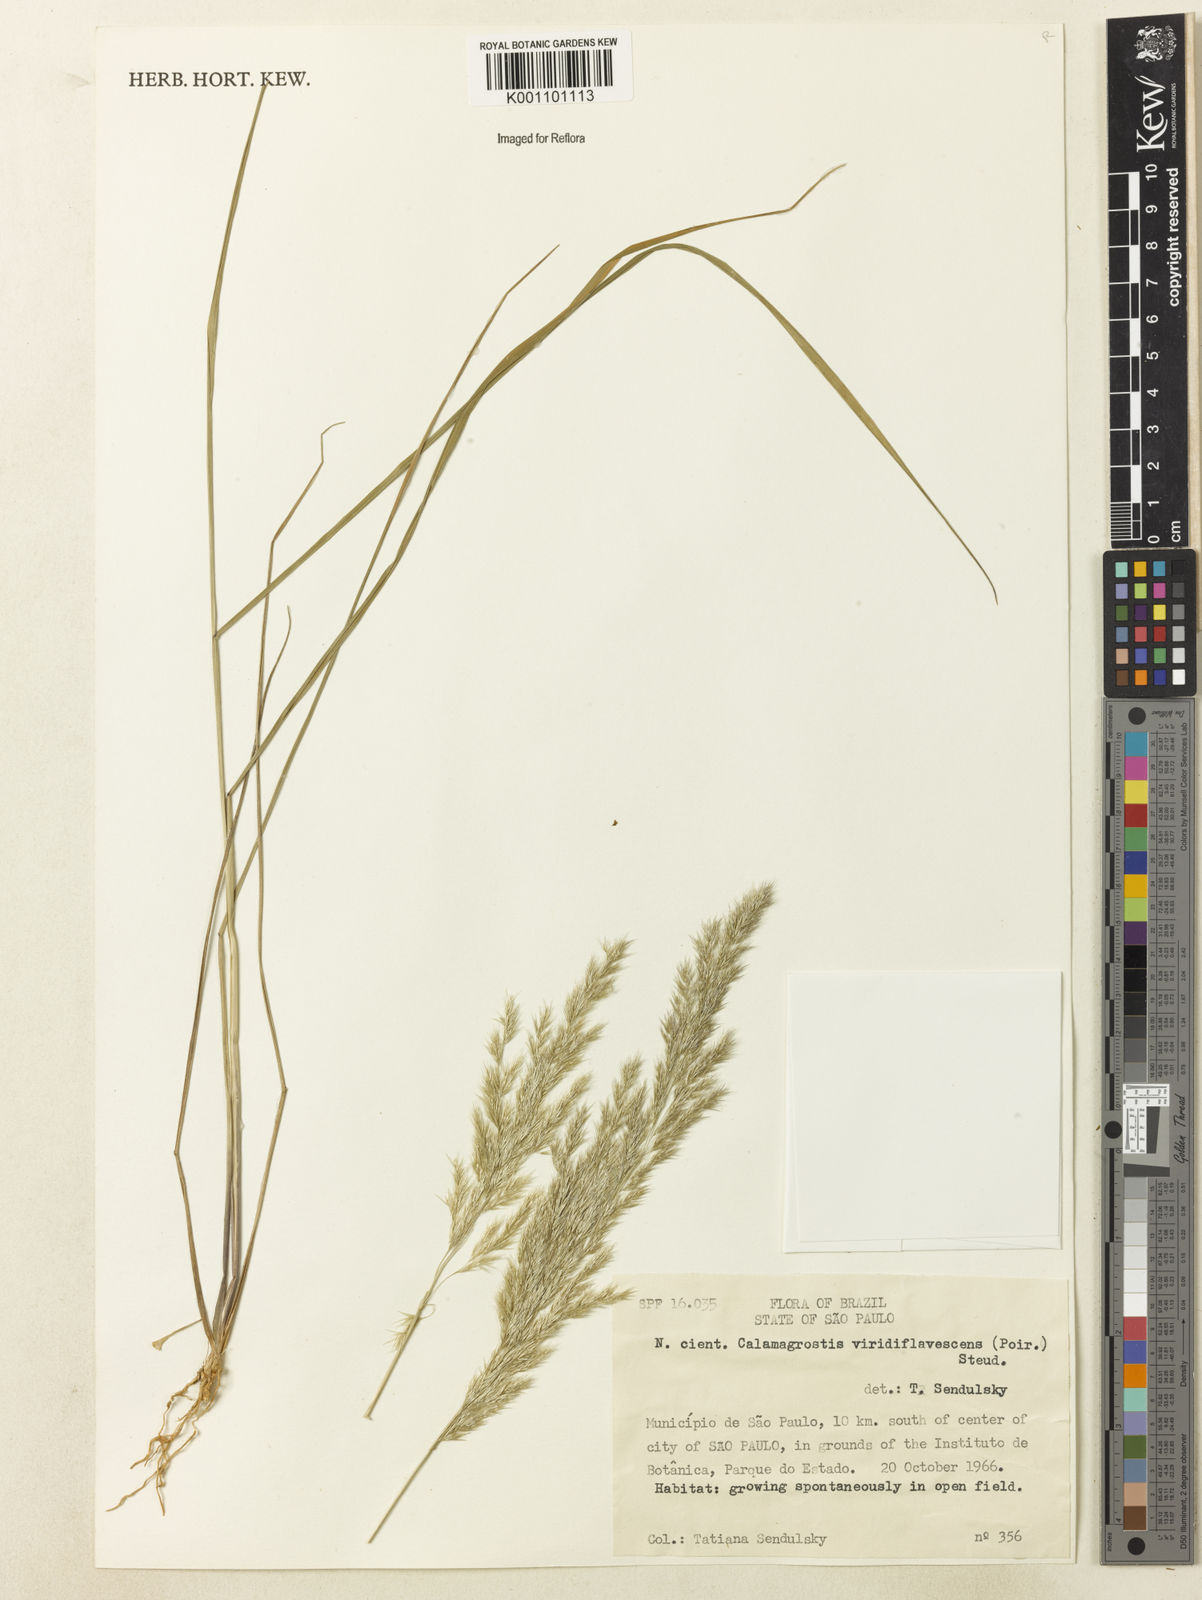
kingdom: Plantae
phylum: Tracheophyta
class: Liliopsida
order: Poales
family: Poaceae
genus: Cinnagrostis
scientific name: Cinnagrostis viridiflavescens
